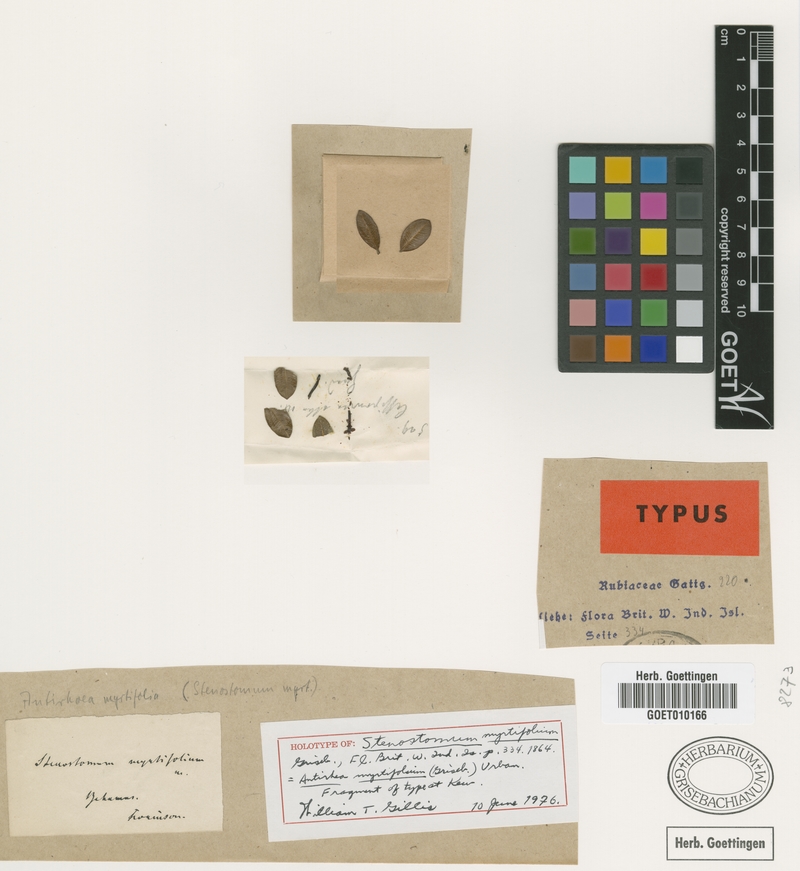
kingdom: Plantae
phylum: Tracheophyta
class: Magnoliopsida
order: Gentianales
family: Rubiaceae
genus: Stenostomum
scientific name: Stenostomum myrtifolium
